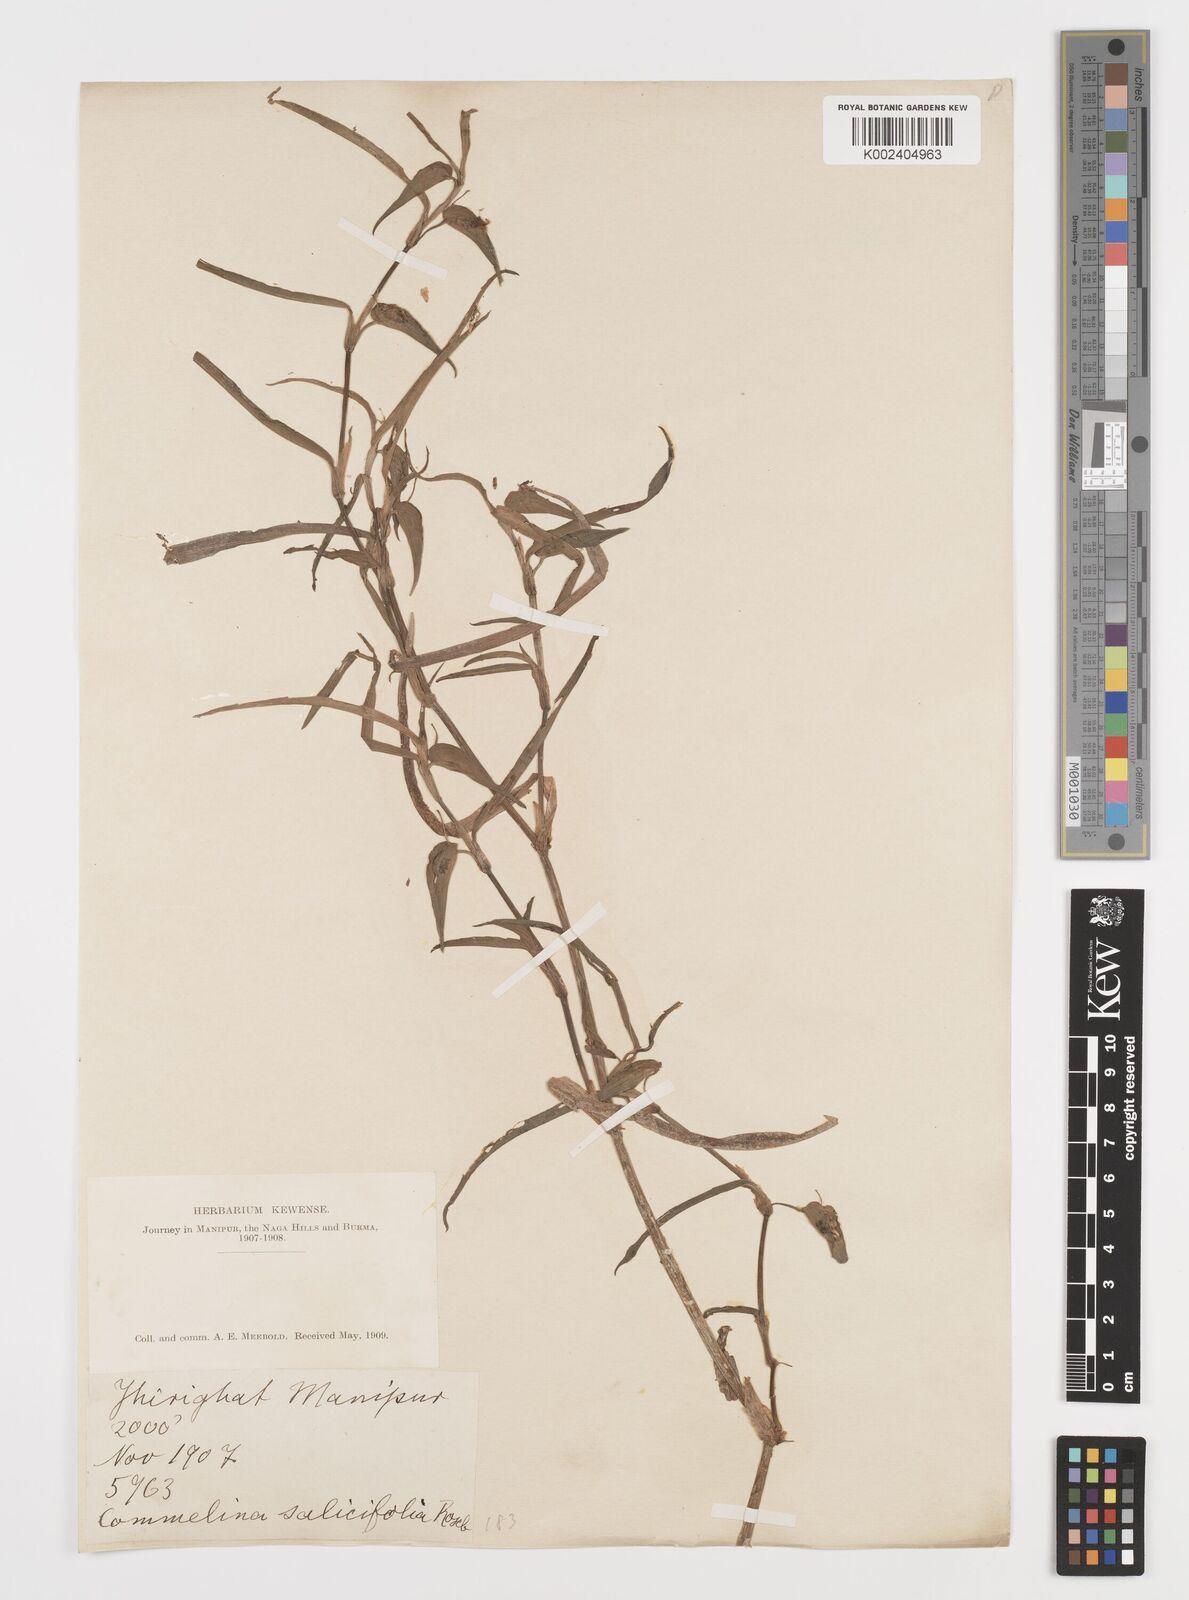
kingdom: Plantae
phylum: Tracheophyta
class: Liliopsida
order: Commelinales
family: Commelinaceae
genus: Commelina
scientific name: Commelina undulata
